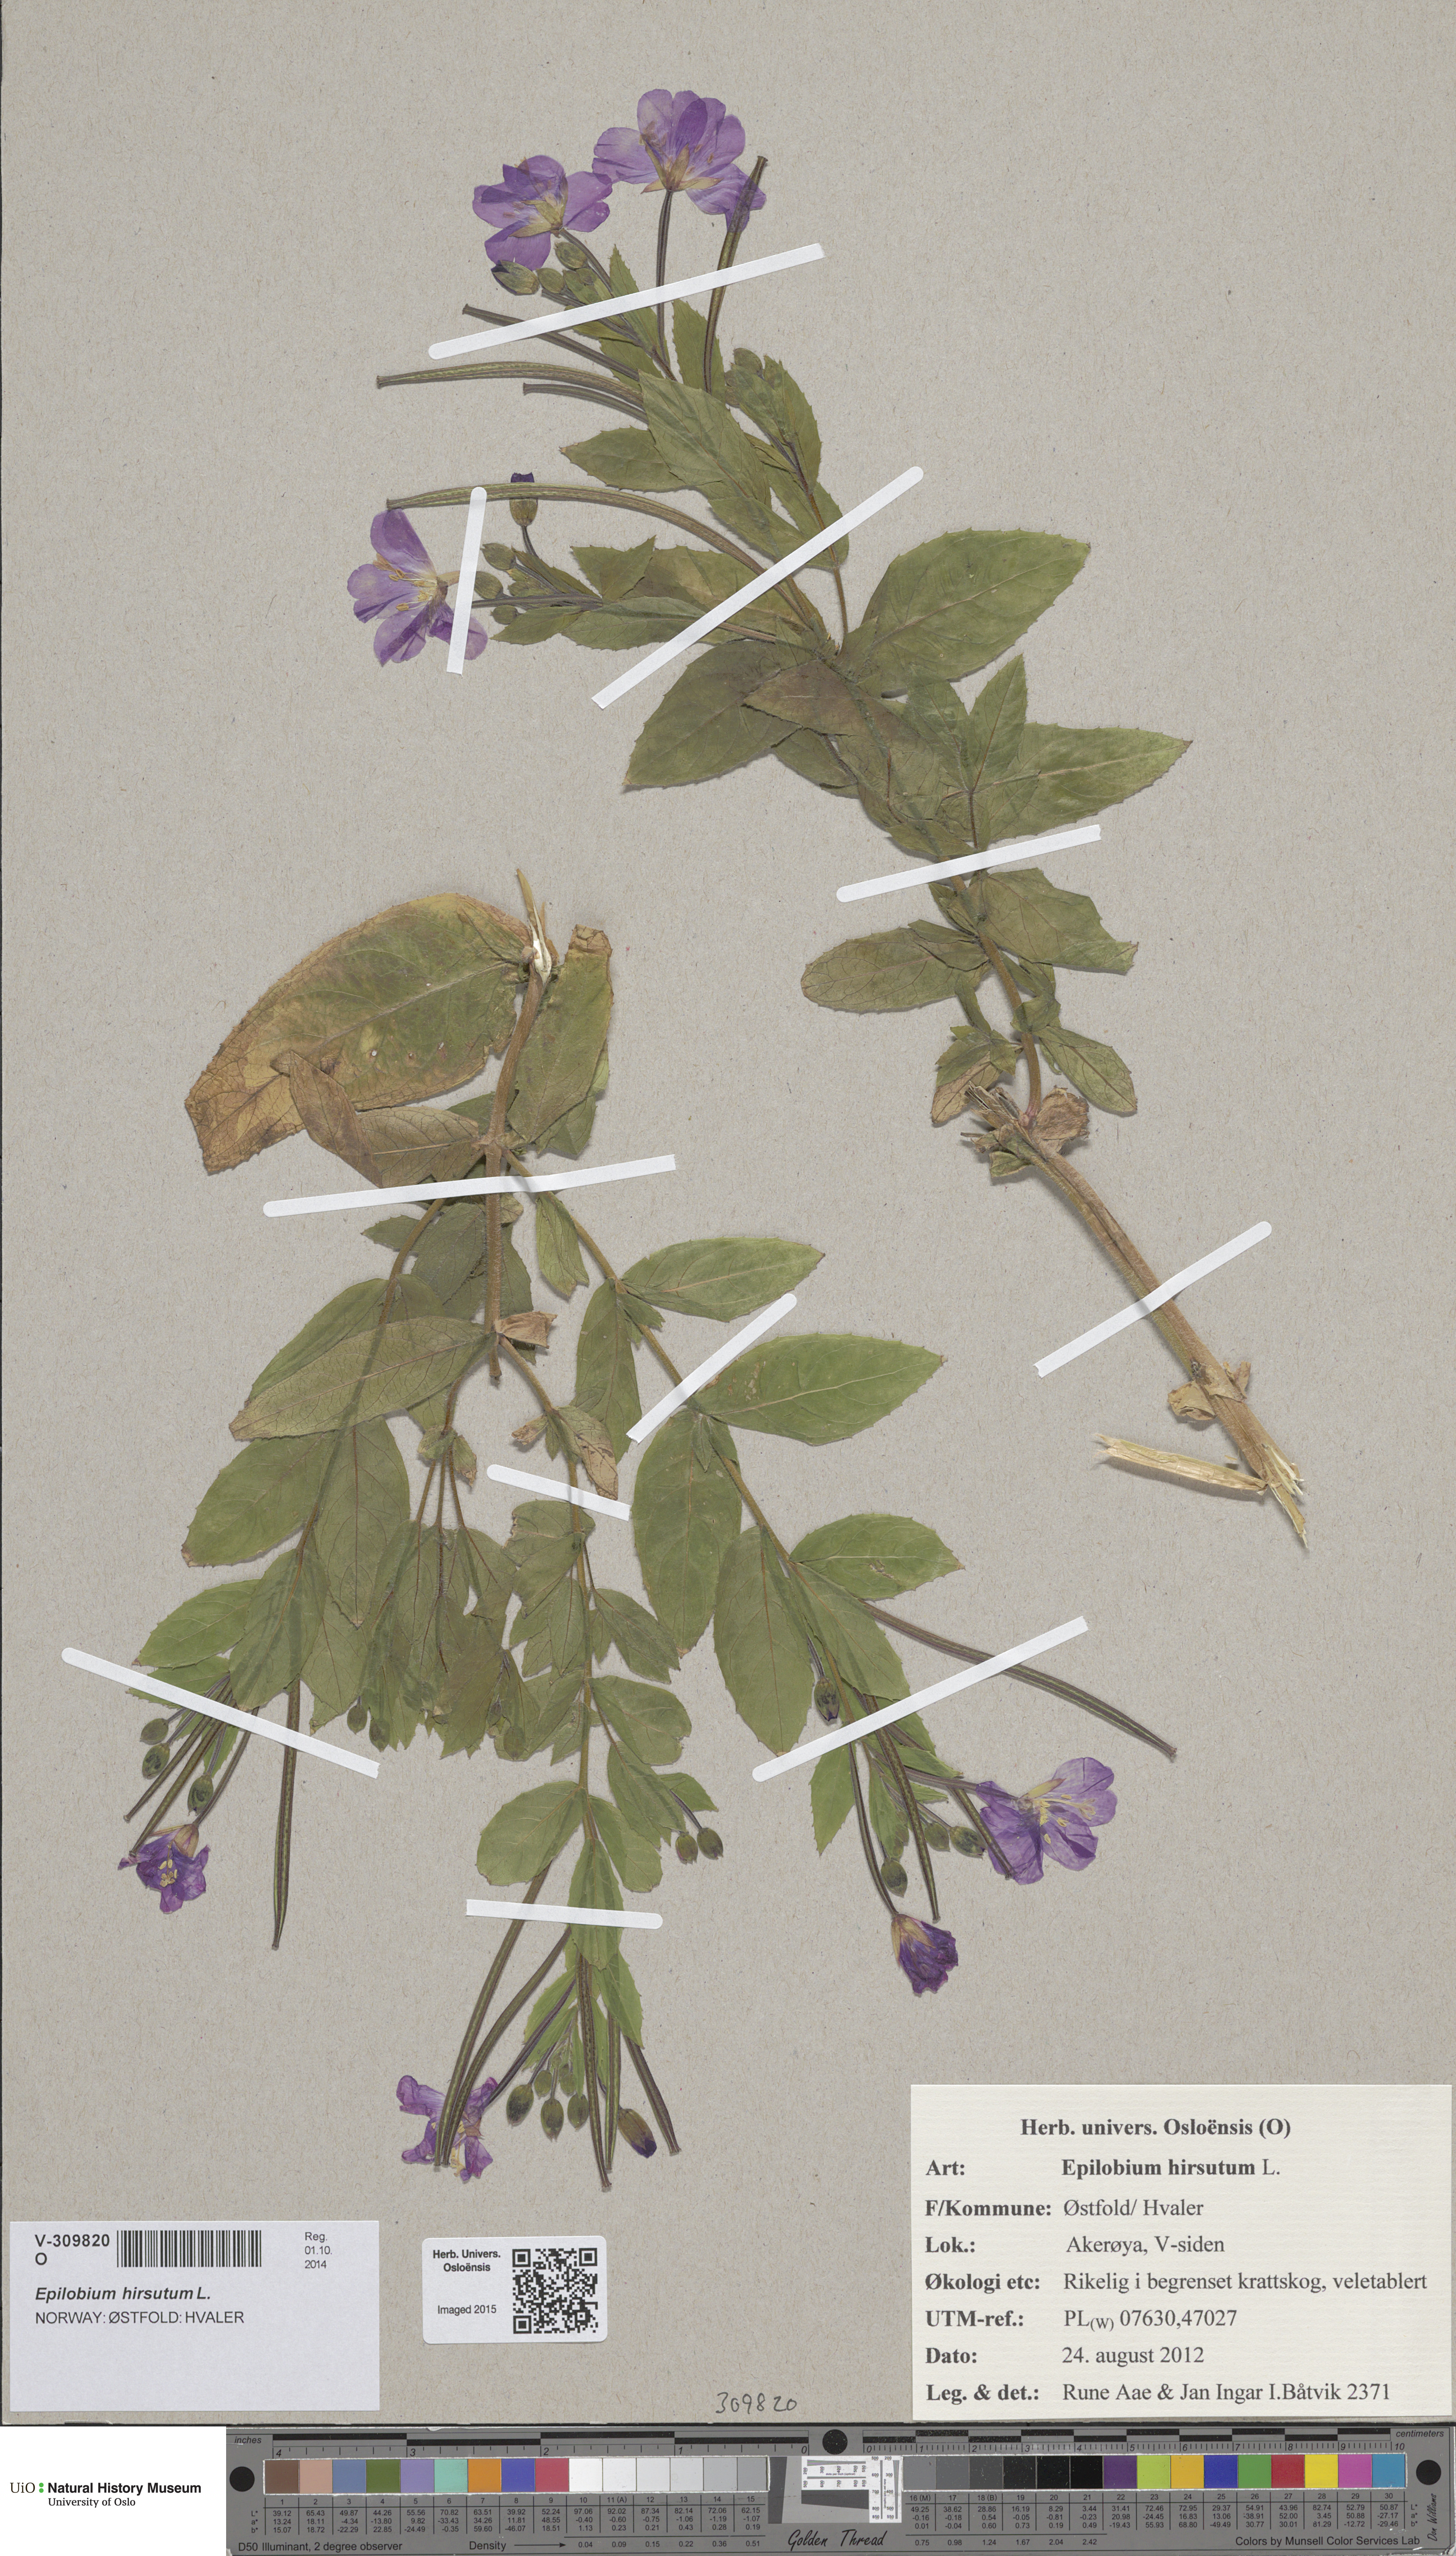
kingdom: Plantae
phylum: Tracheophyta
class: Magnoliopsida
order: Myrtales
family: Onagraceae
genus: Epilobium
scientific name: Epilobium hirsutum
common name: Great willowherb
